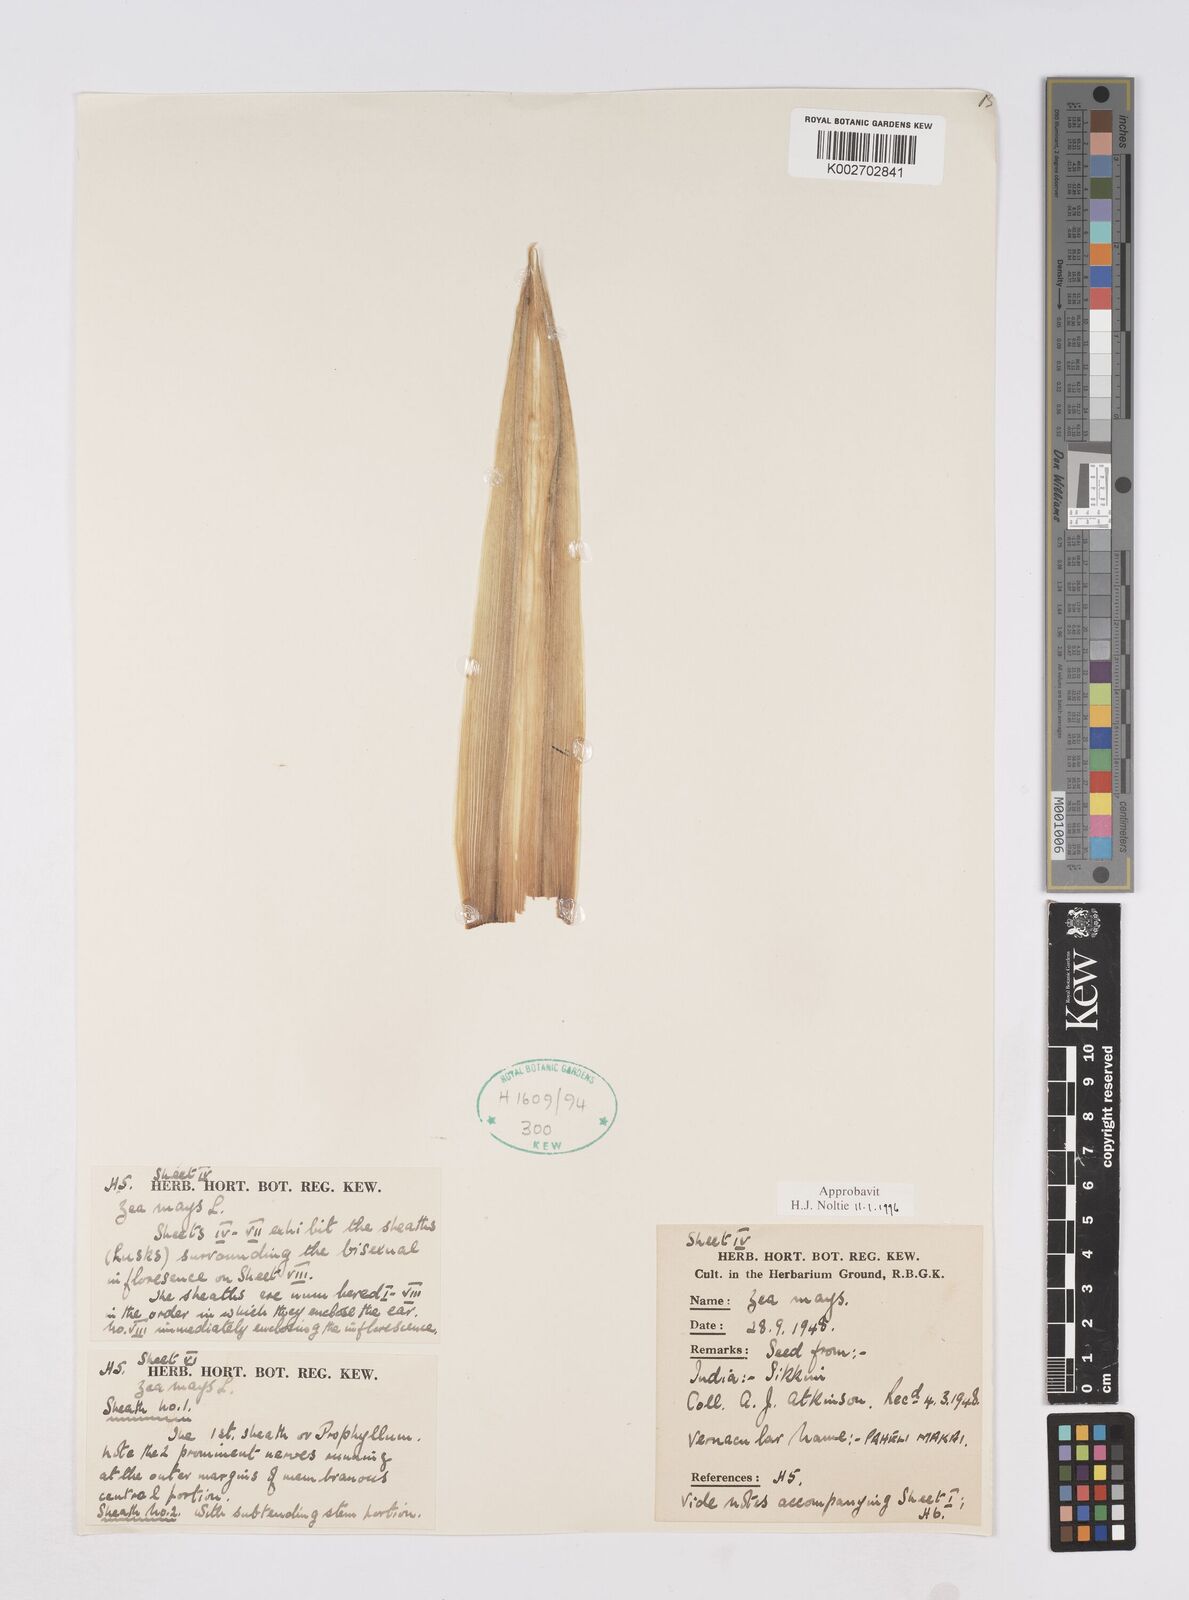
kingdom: Plantae
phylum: Tracheophyta
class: Liliopsida
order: Poales
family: Poaceae
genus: Zea
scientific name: Zea mays
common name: Maize
